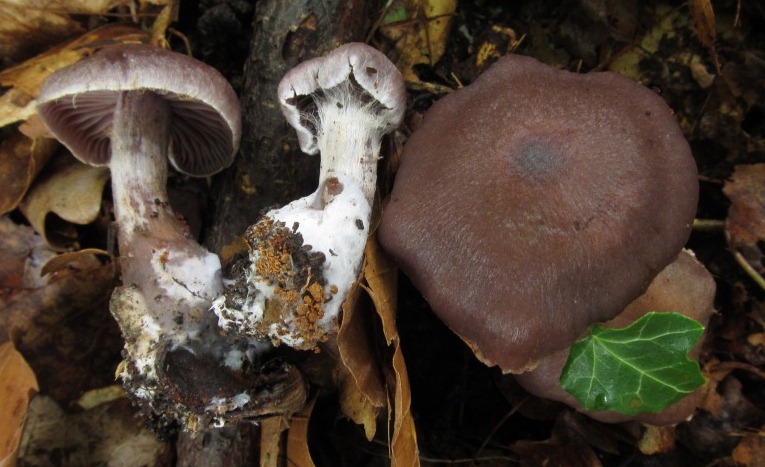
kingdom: Fungi
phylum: Basidiomycota
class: Agaricomycetes
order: Agaricales
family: Cortinariaceae
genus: Cortinarius
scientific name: Cortinarius serratissimus
